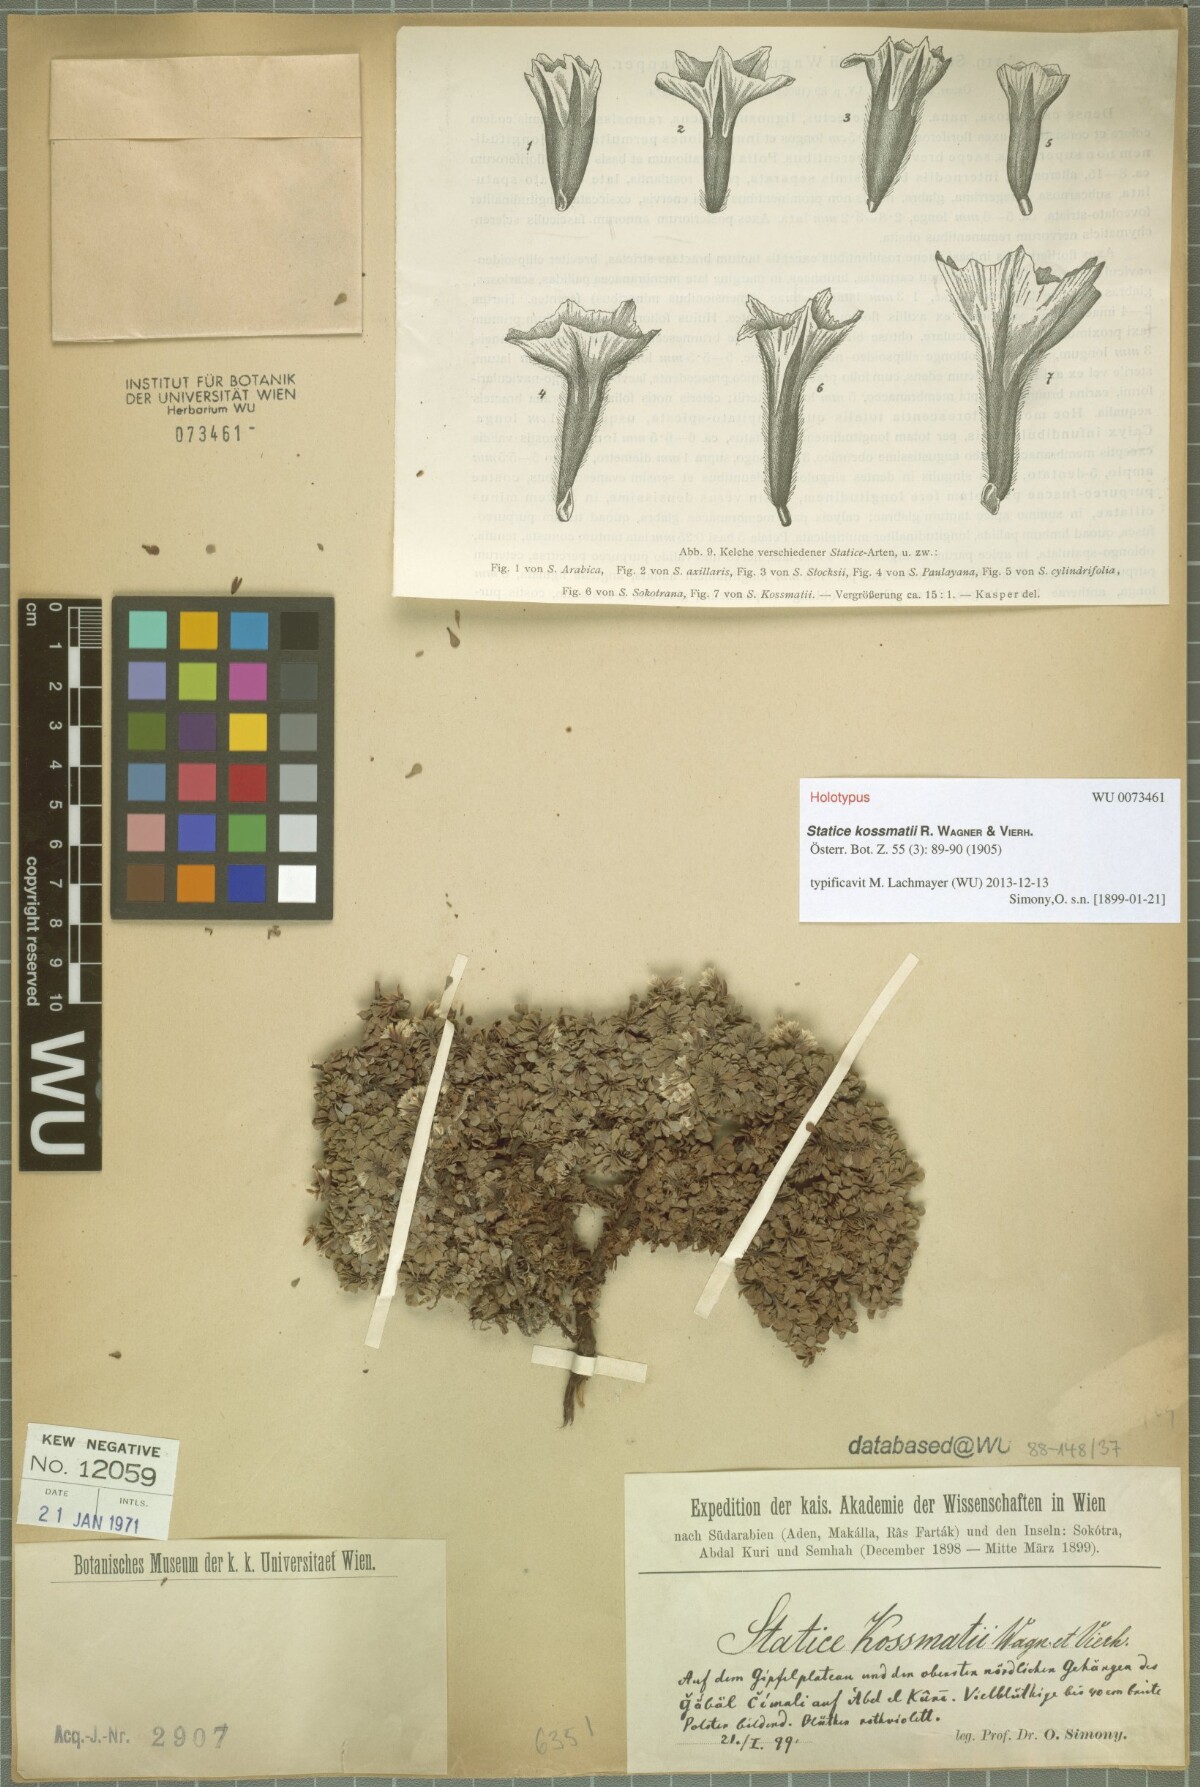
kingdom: Plantae
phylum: Tracheophyta
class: Magnoliopsida
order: Caryophyllales
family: Plumbaginaceae
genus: Limonium
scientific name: Limonium paulayanum
